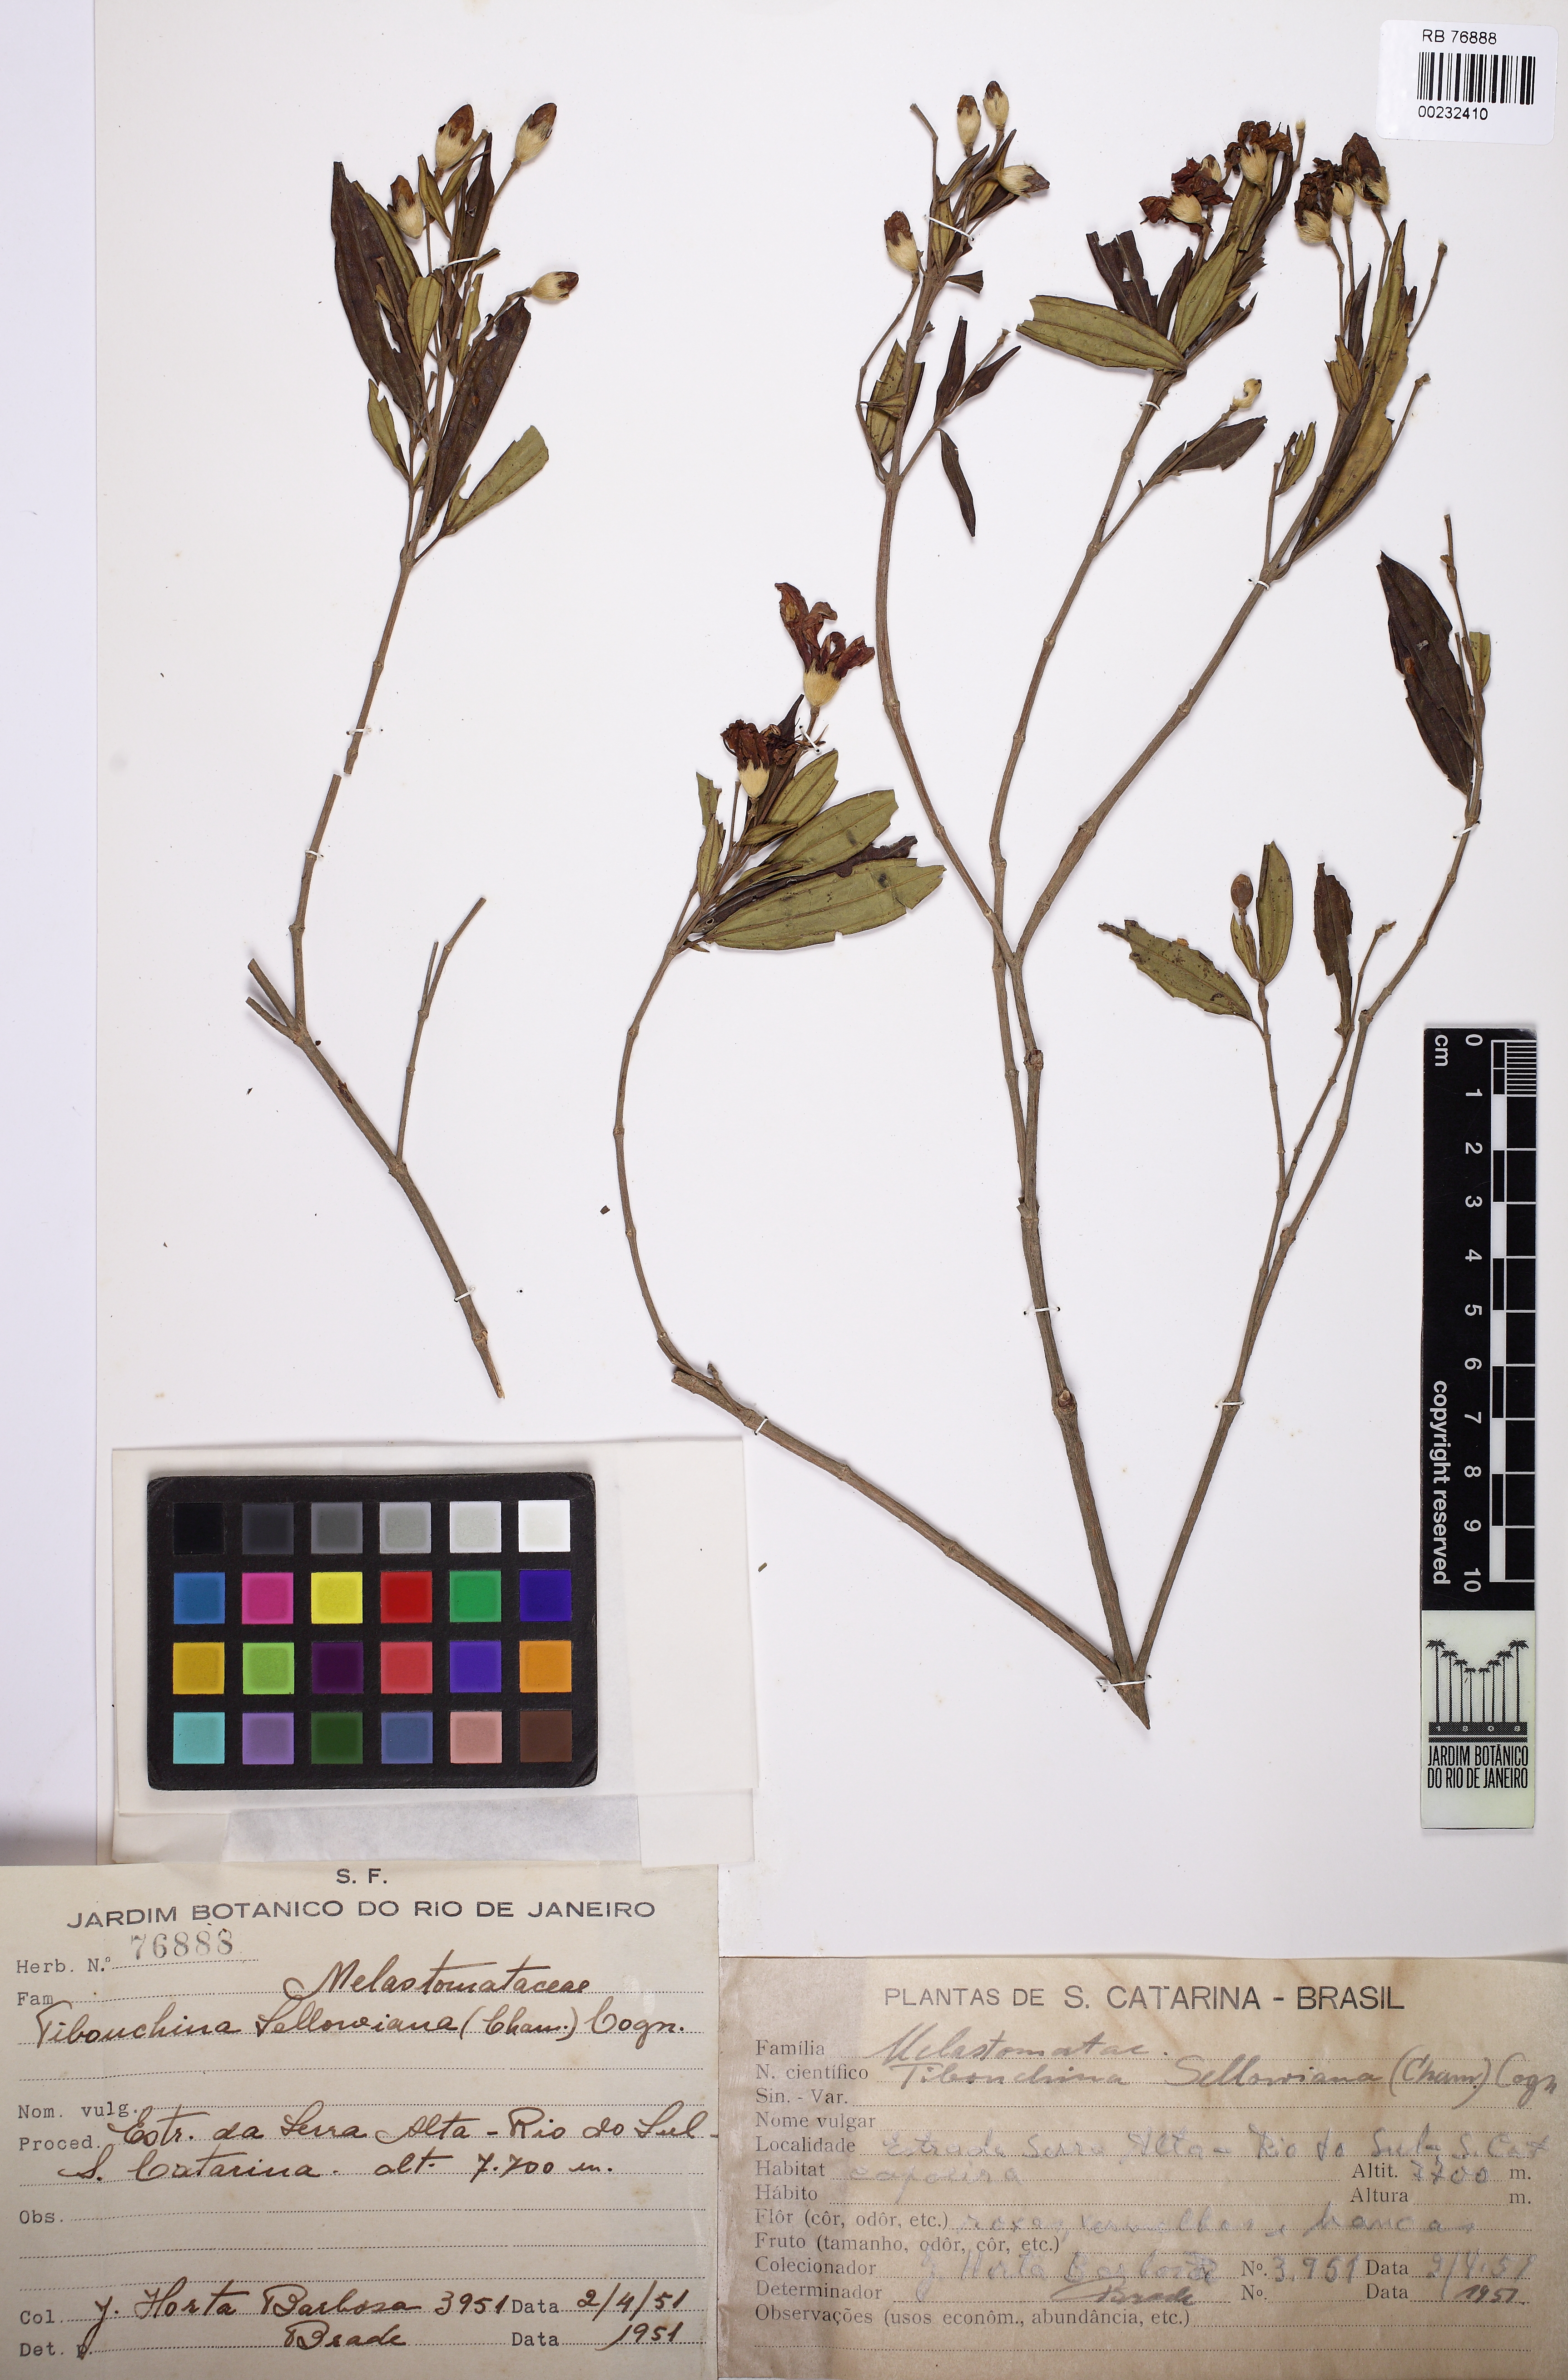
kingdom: Plantae
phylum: Tracheophyta
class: Magnoliopsida
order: Myrtales
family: Melastomataceae
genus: Pleroma
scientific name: Pleroma ochypetalum
